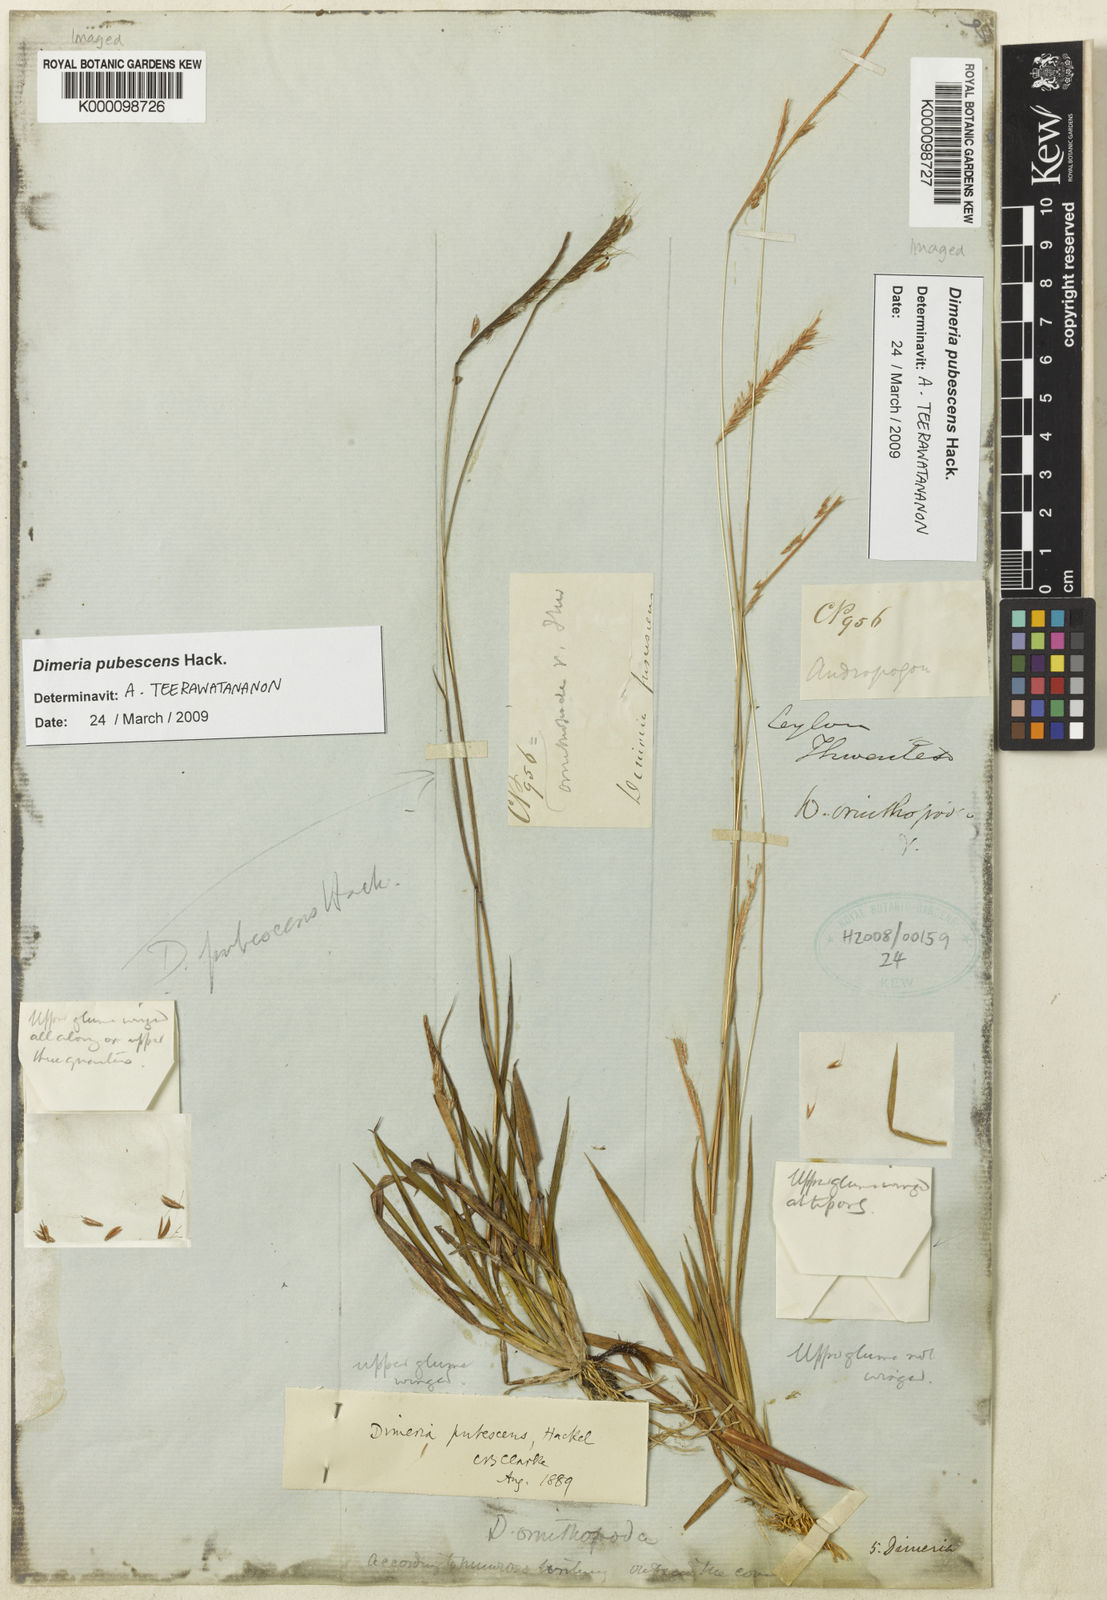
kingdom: Plantae
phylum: Tracheophyta
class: Liliopsida
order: Poales
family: Poaceae
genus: Dimeria
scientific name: Dimeria pubescens
